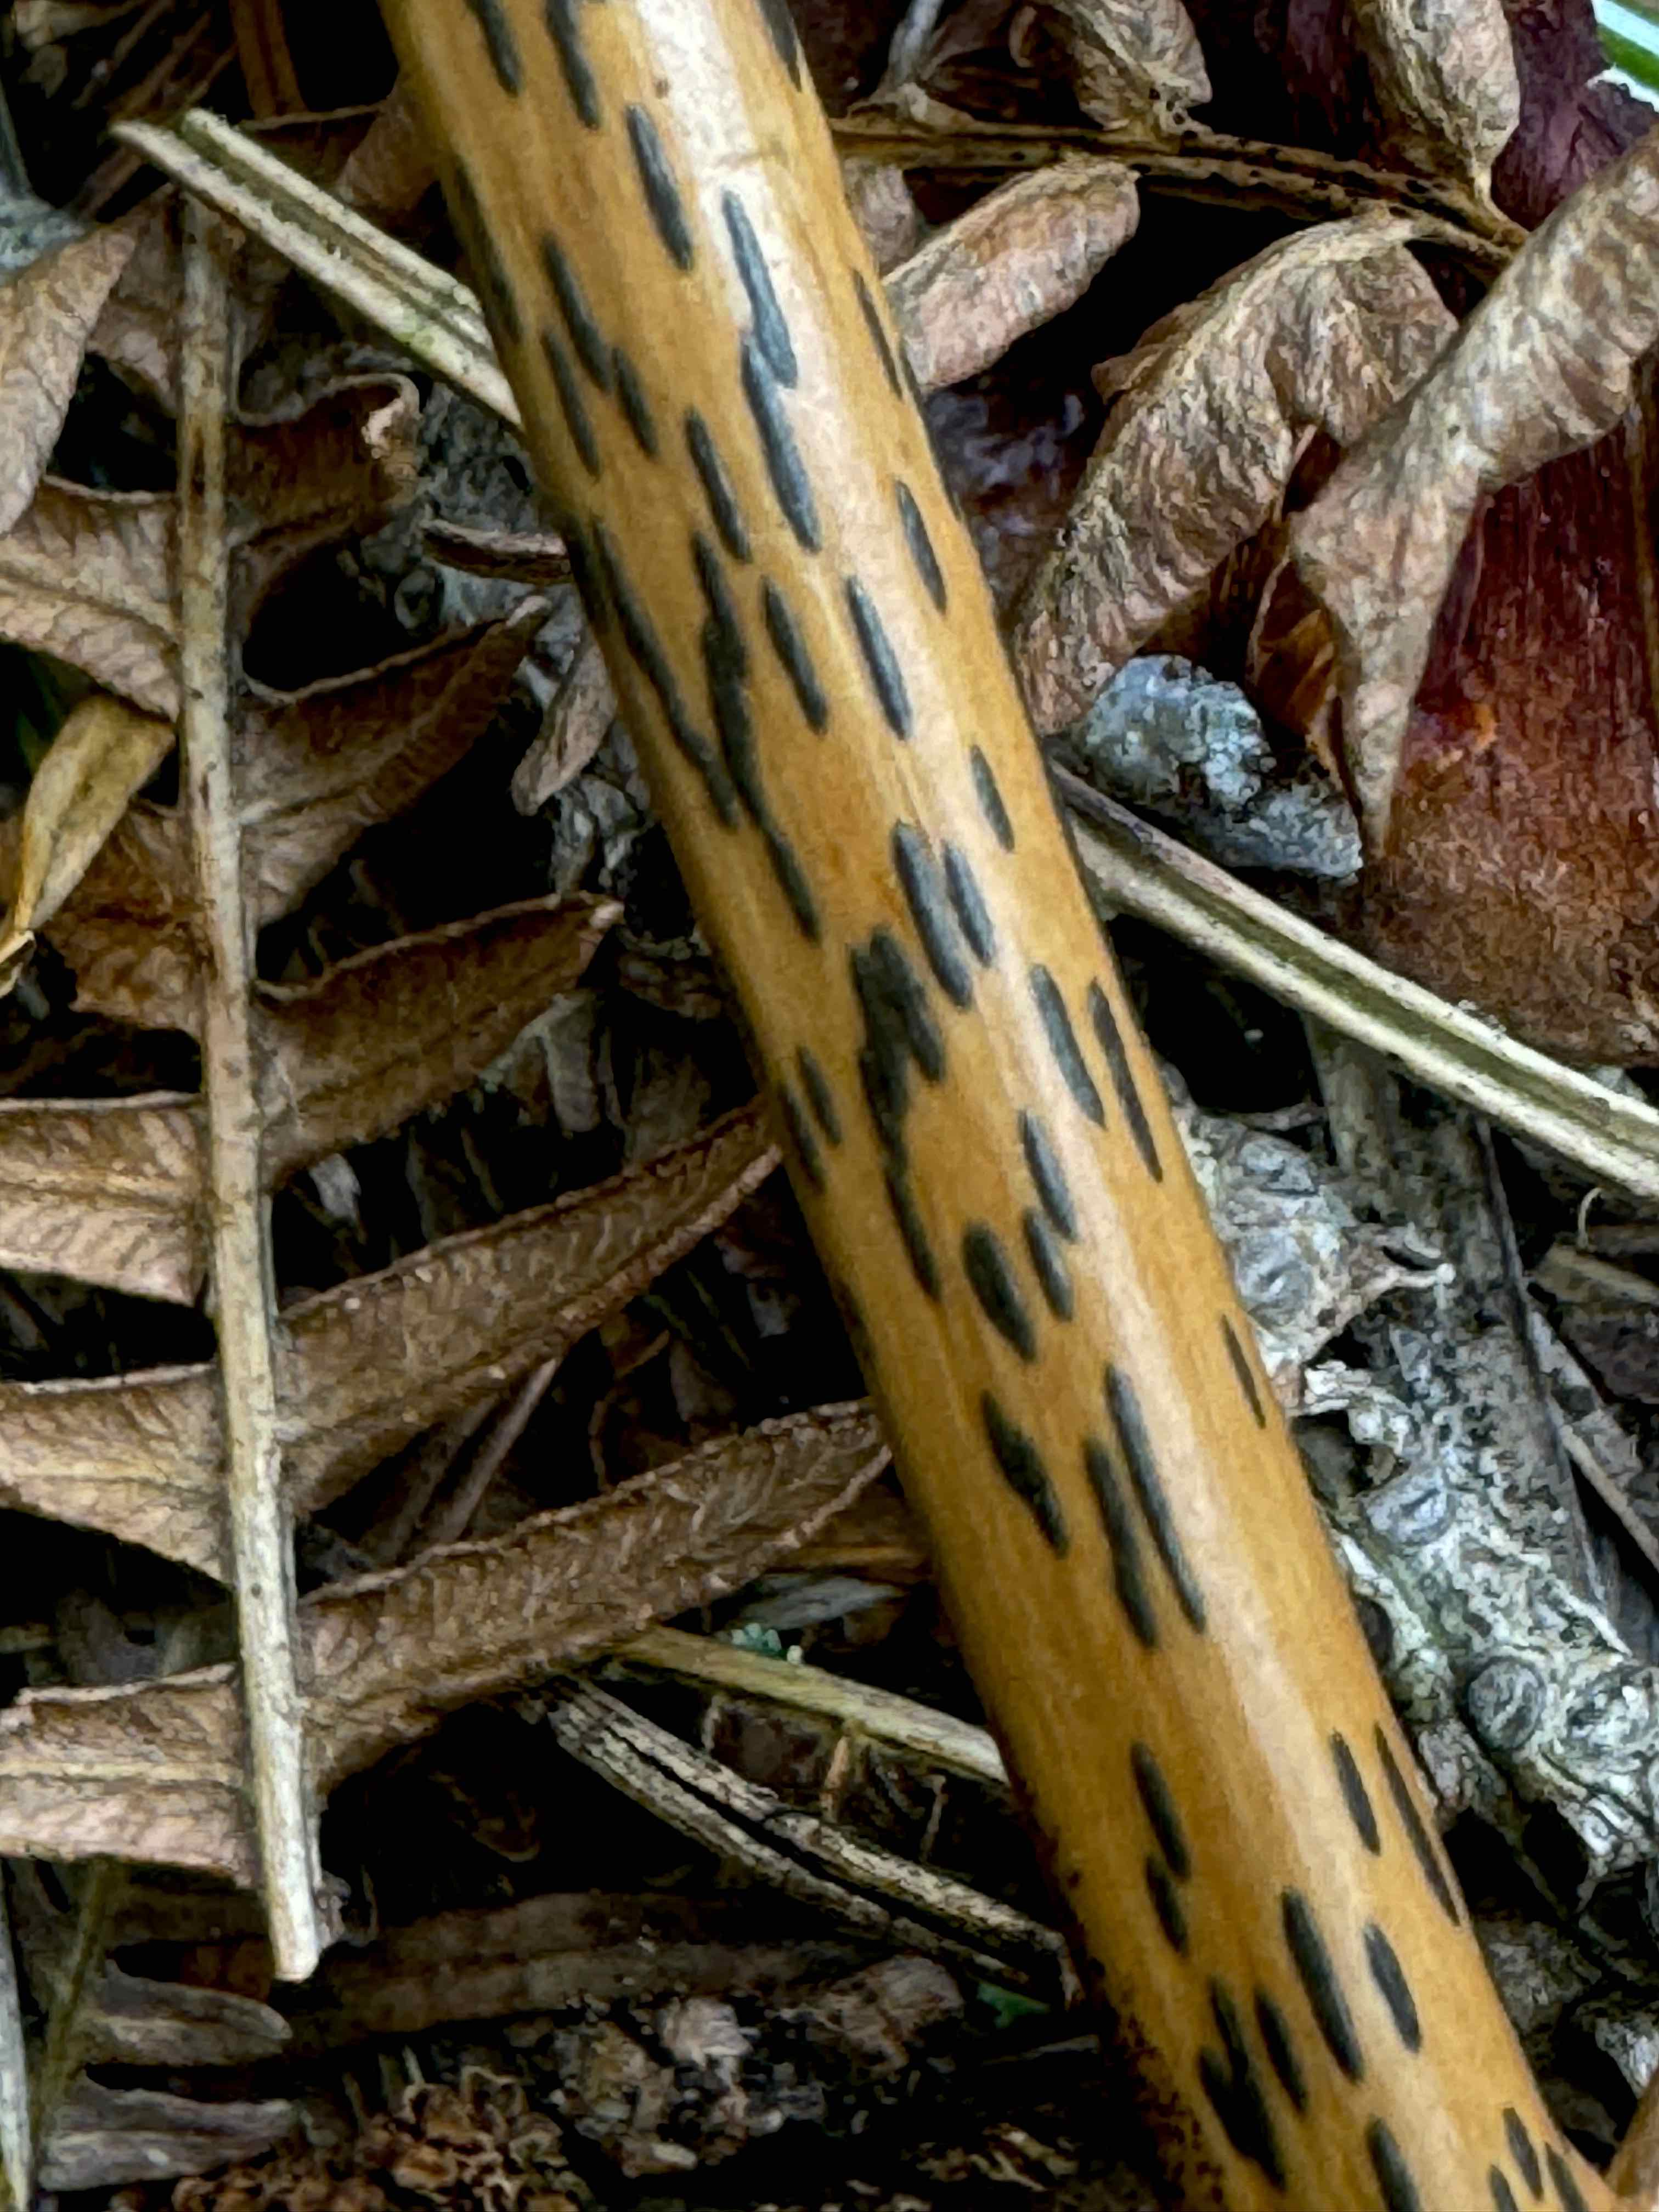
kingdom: Fungi
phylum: Ascomycota
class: Dothideomycetes
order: Pleosporales
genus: Rhopographus
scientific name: Rhopographus filicinus
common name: Bracken map
